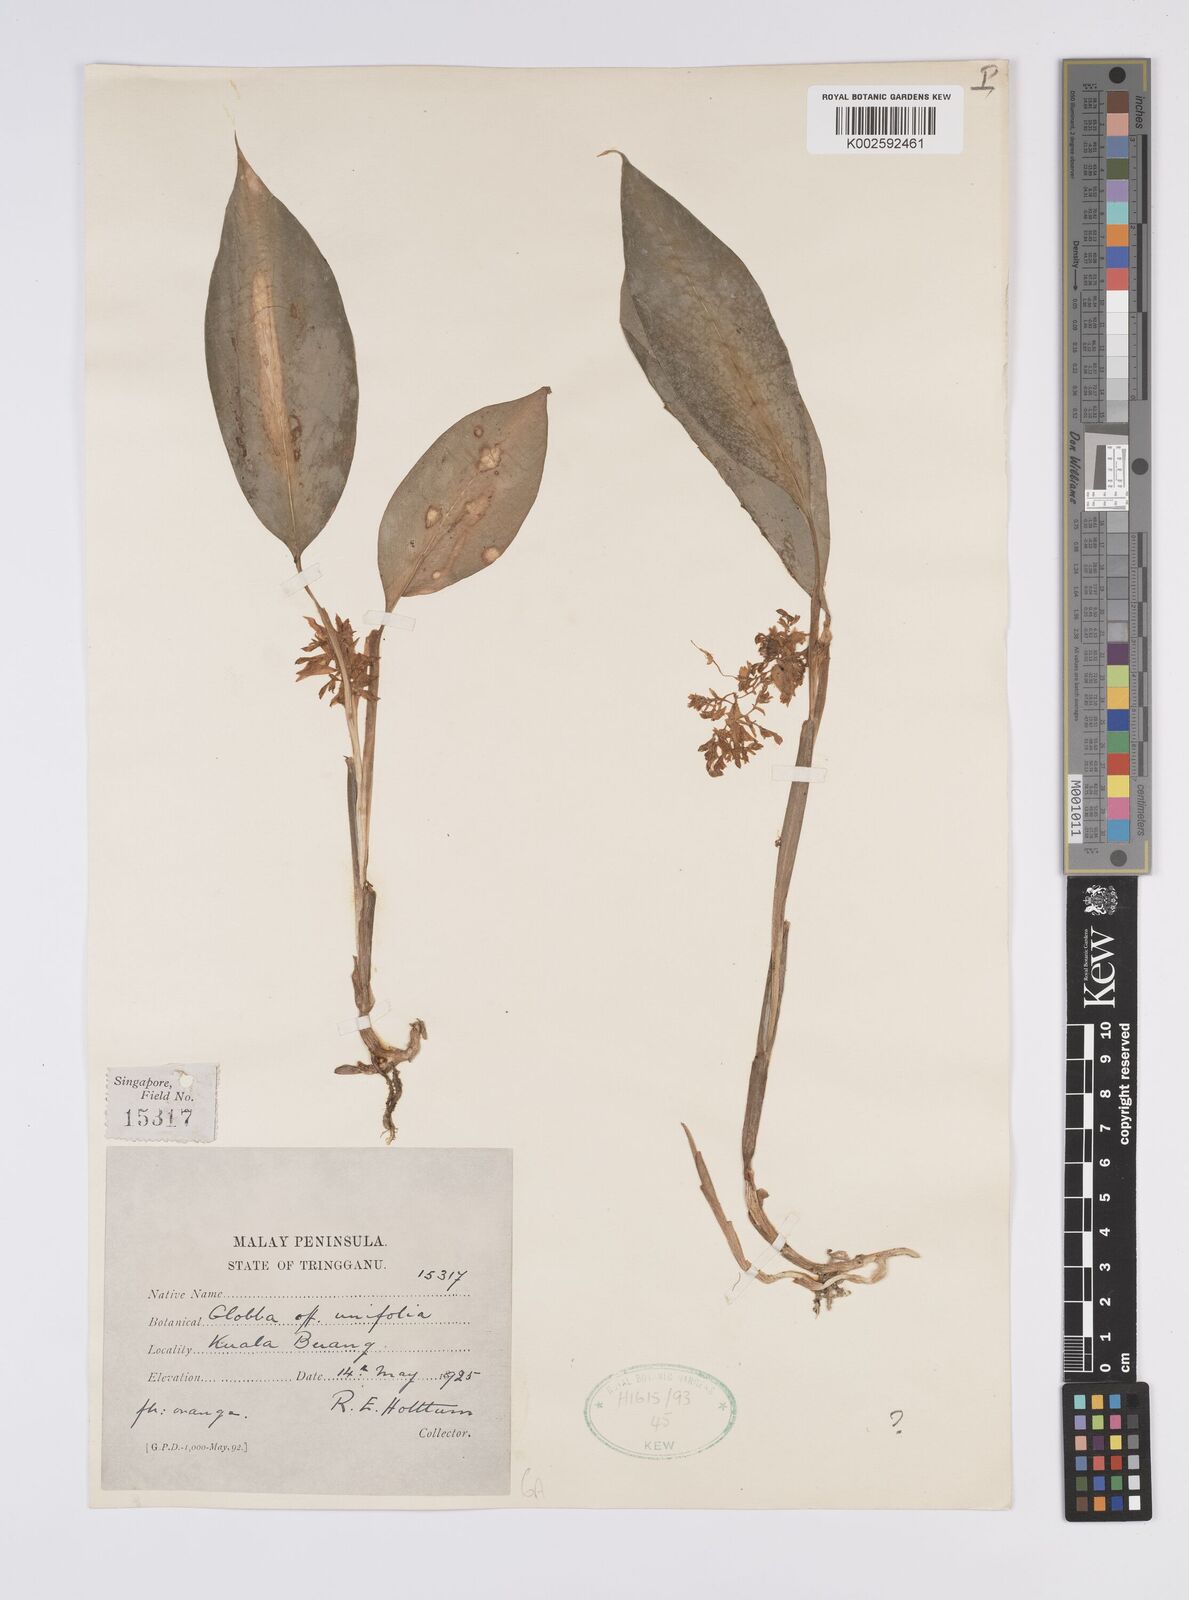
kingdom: Plantae
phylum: Tracheophyta
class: Liliopsida
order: Zingiberales
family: Zingiberaceae
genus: Globba
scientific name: Globba unifolia
